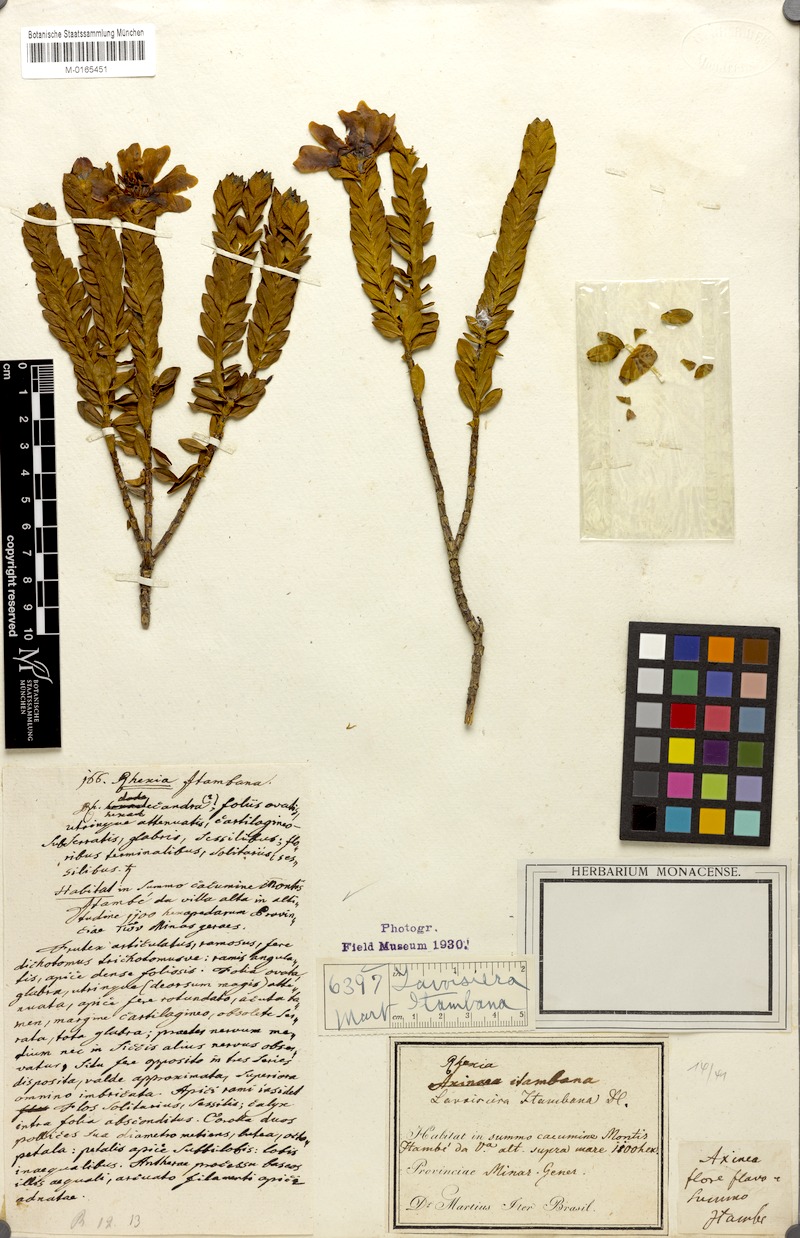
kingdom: Plantae
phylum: Tracheophyta
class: Magnoliopsida
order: Myrtales
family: Melastomataceae
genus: Microlicia
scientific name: Microlicia itambana
